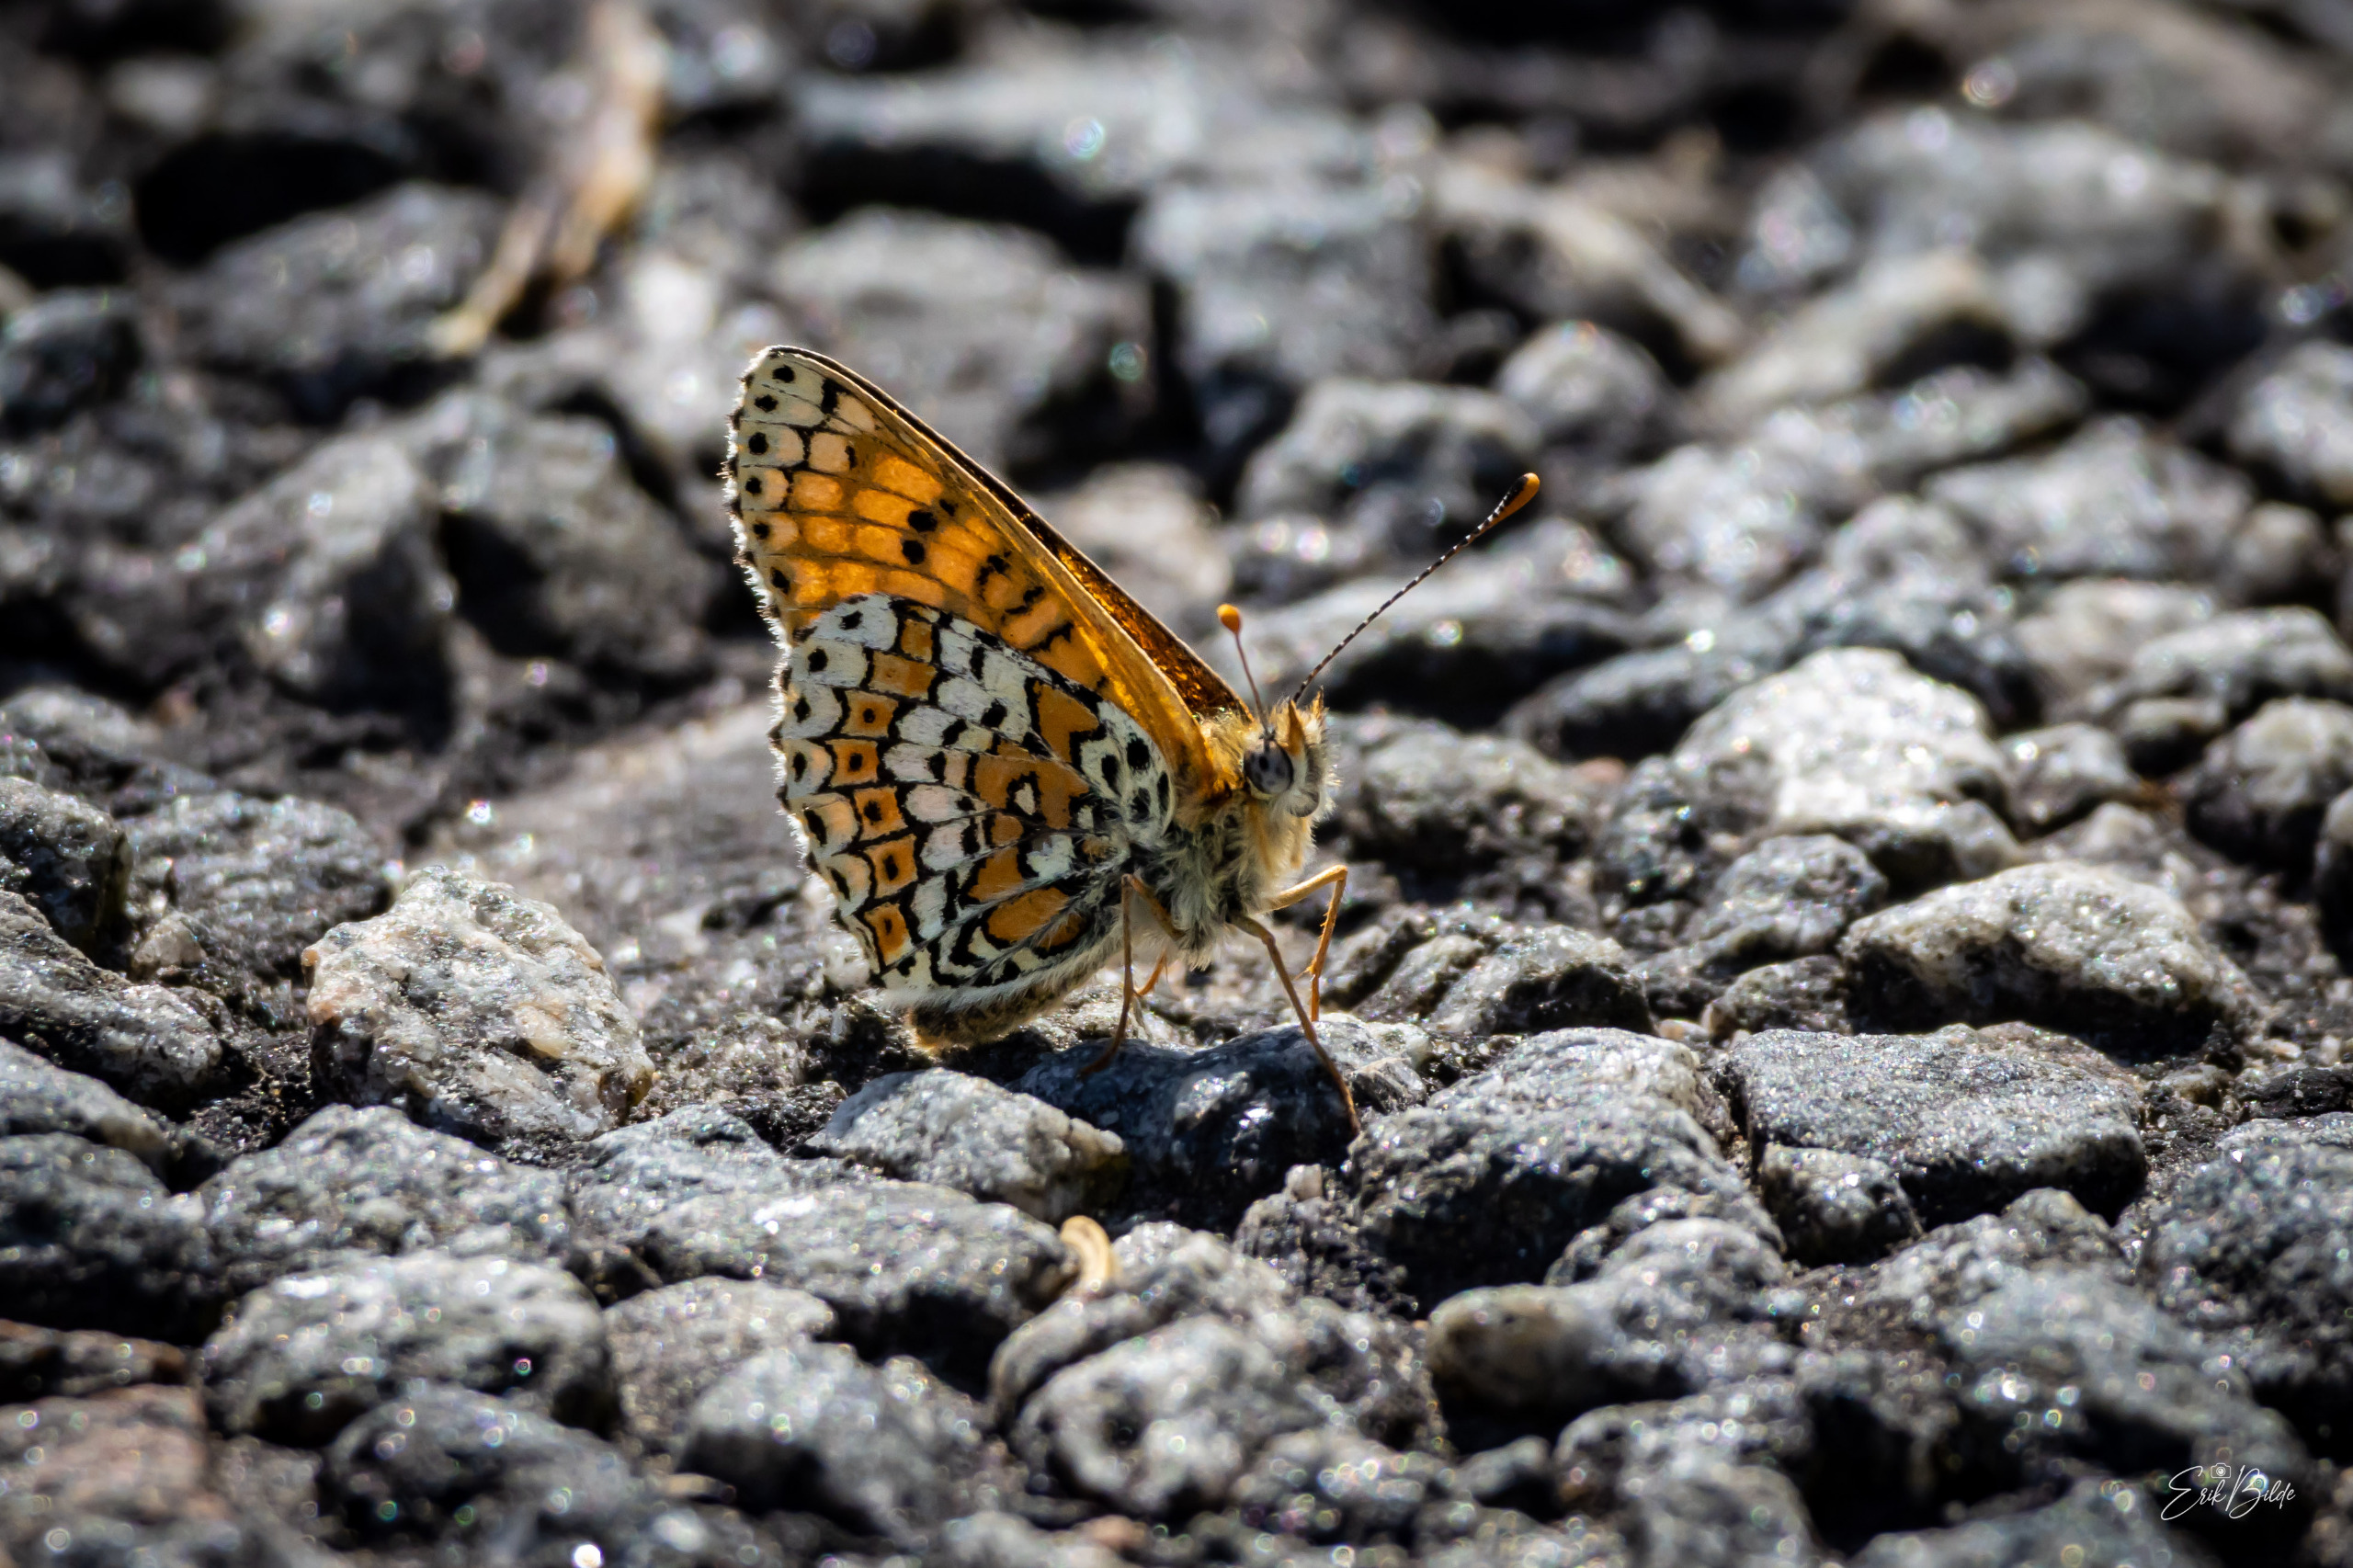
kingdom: Animalia
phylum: Arthropoda
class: Insecta
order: Lepidoptera
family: Nymphalidae
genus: Melitaea
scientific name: Melitaea cinxia
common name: Okkergul pletvinge
